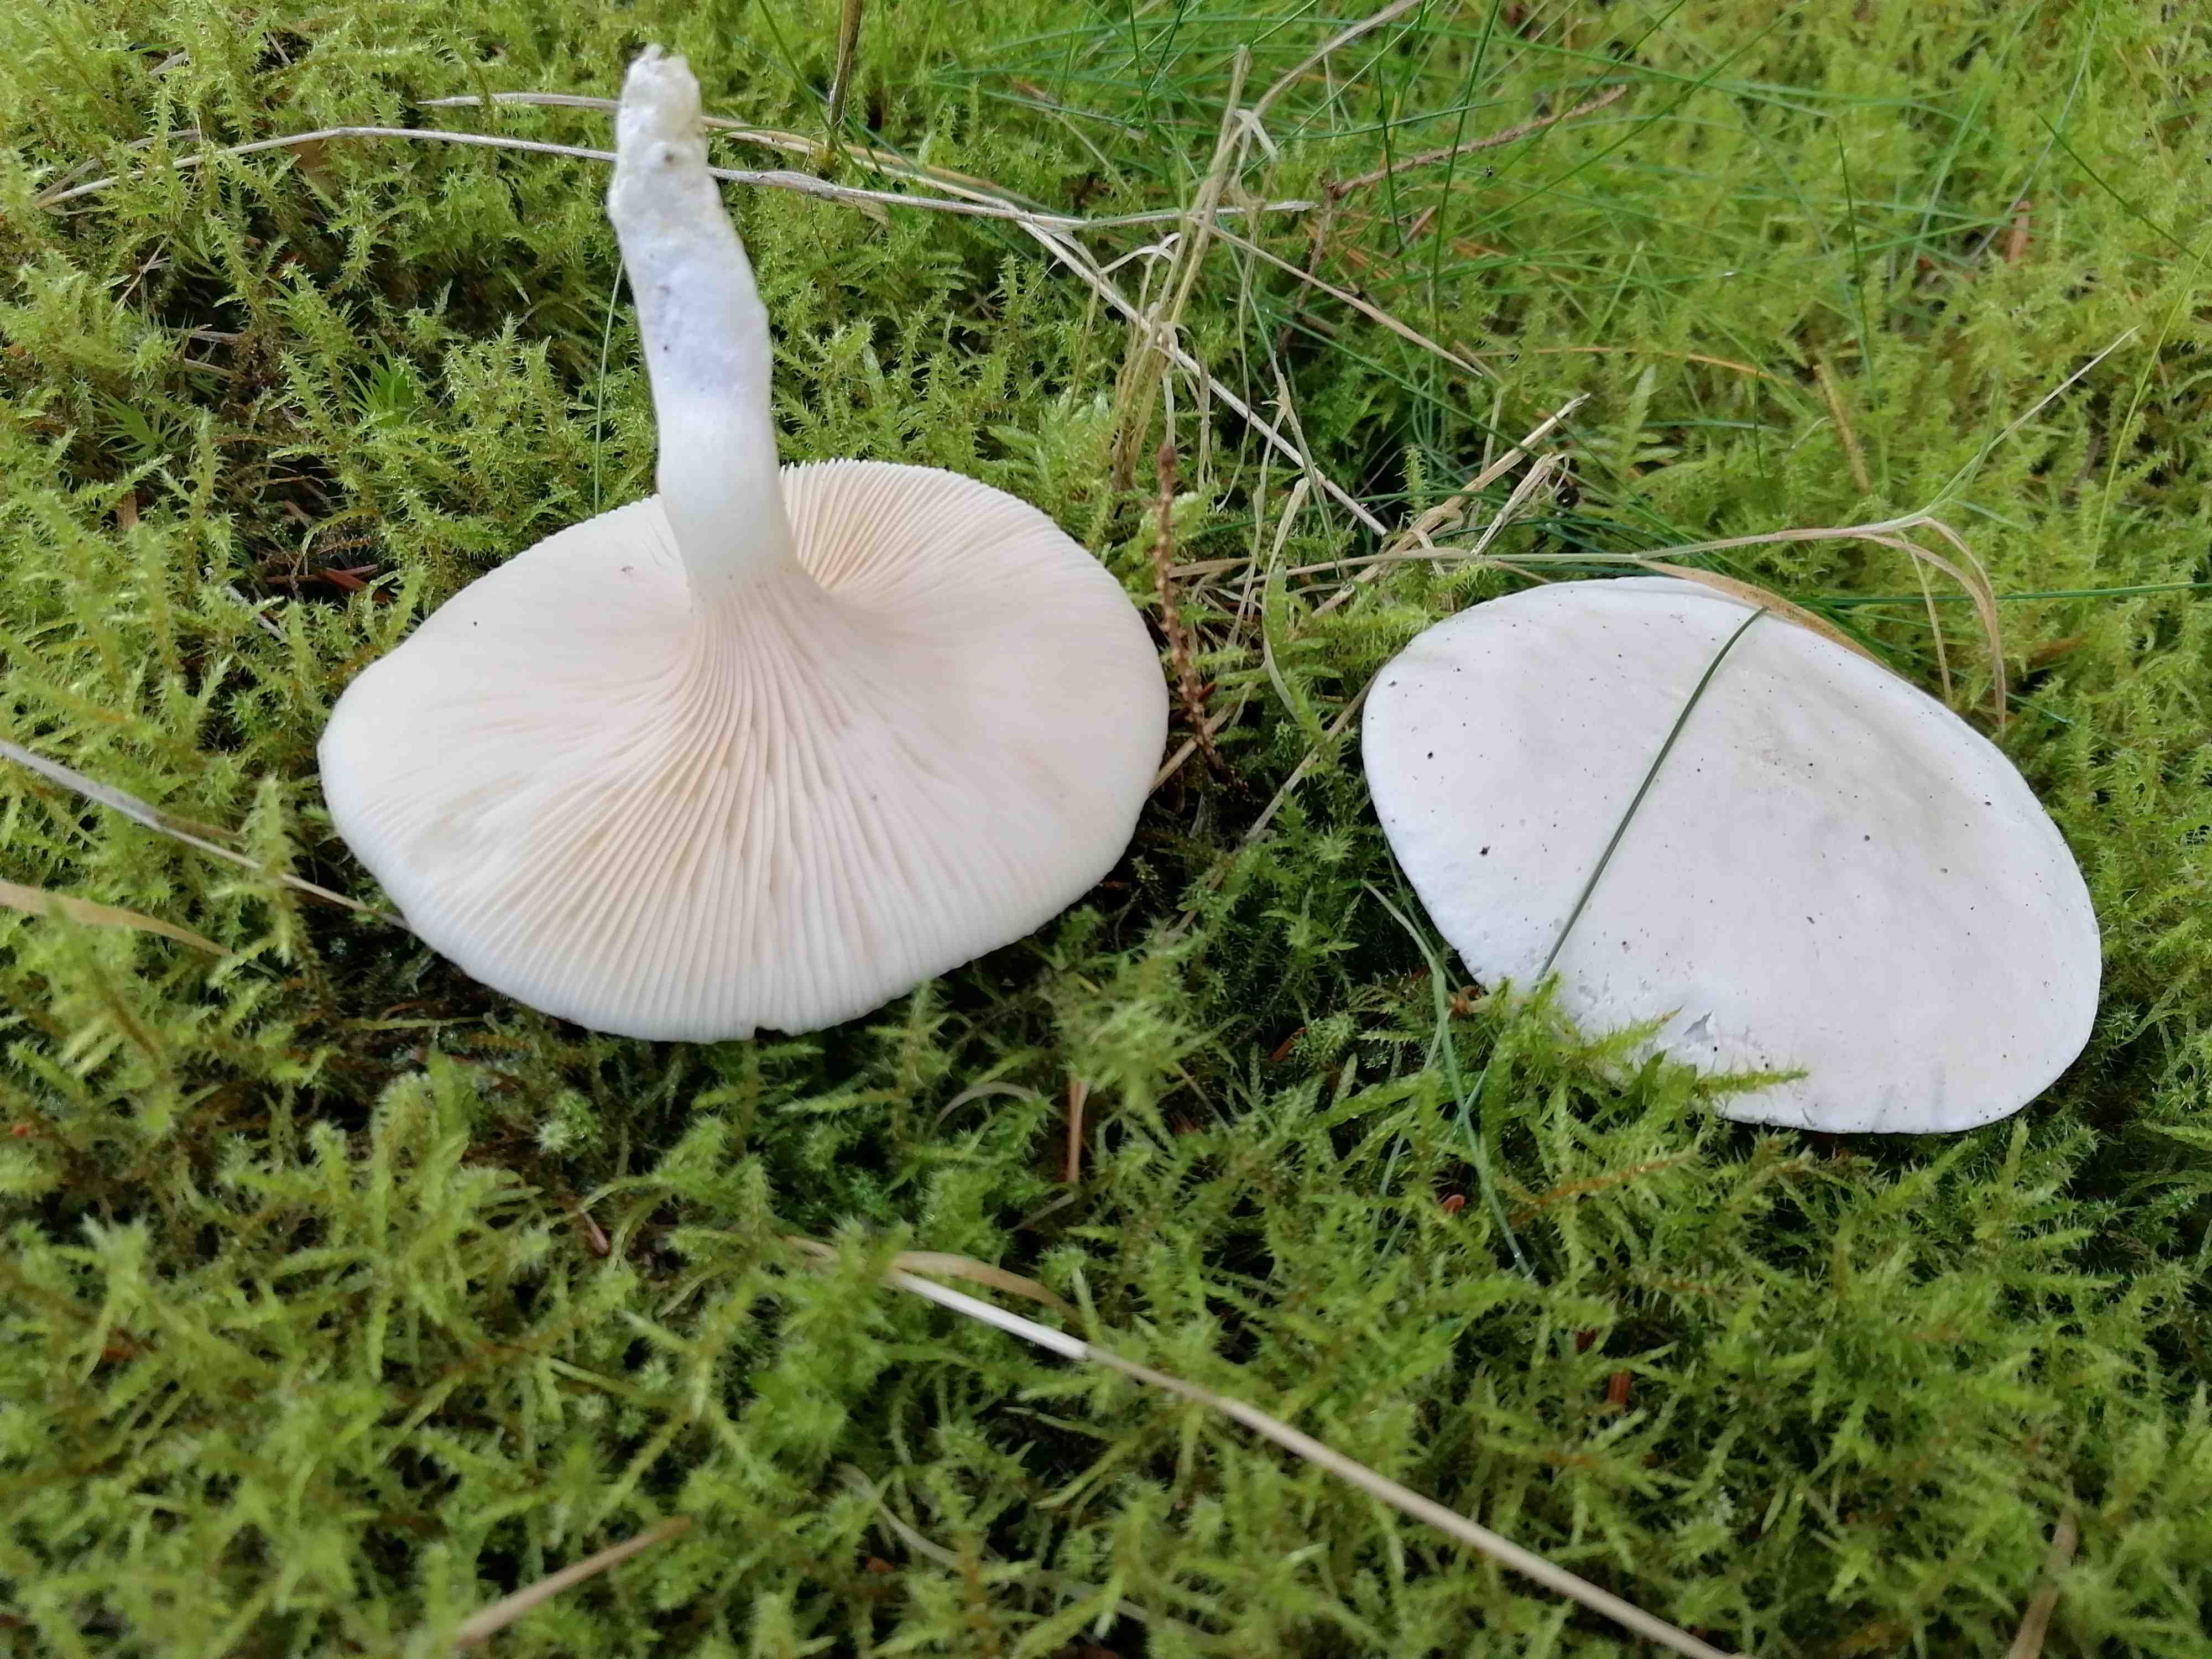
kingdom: Fungi
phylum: Basidiomycota
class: Agaricomycetes
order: Agaricales
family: Entolomataceae
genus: Clitopilus
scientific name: Clitopilus prunulus
